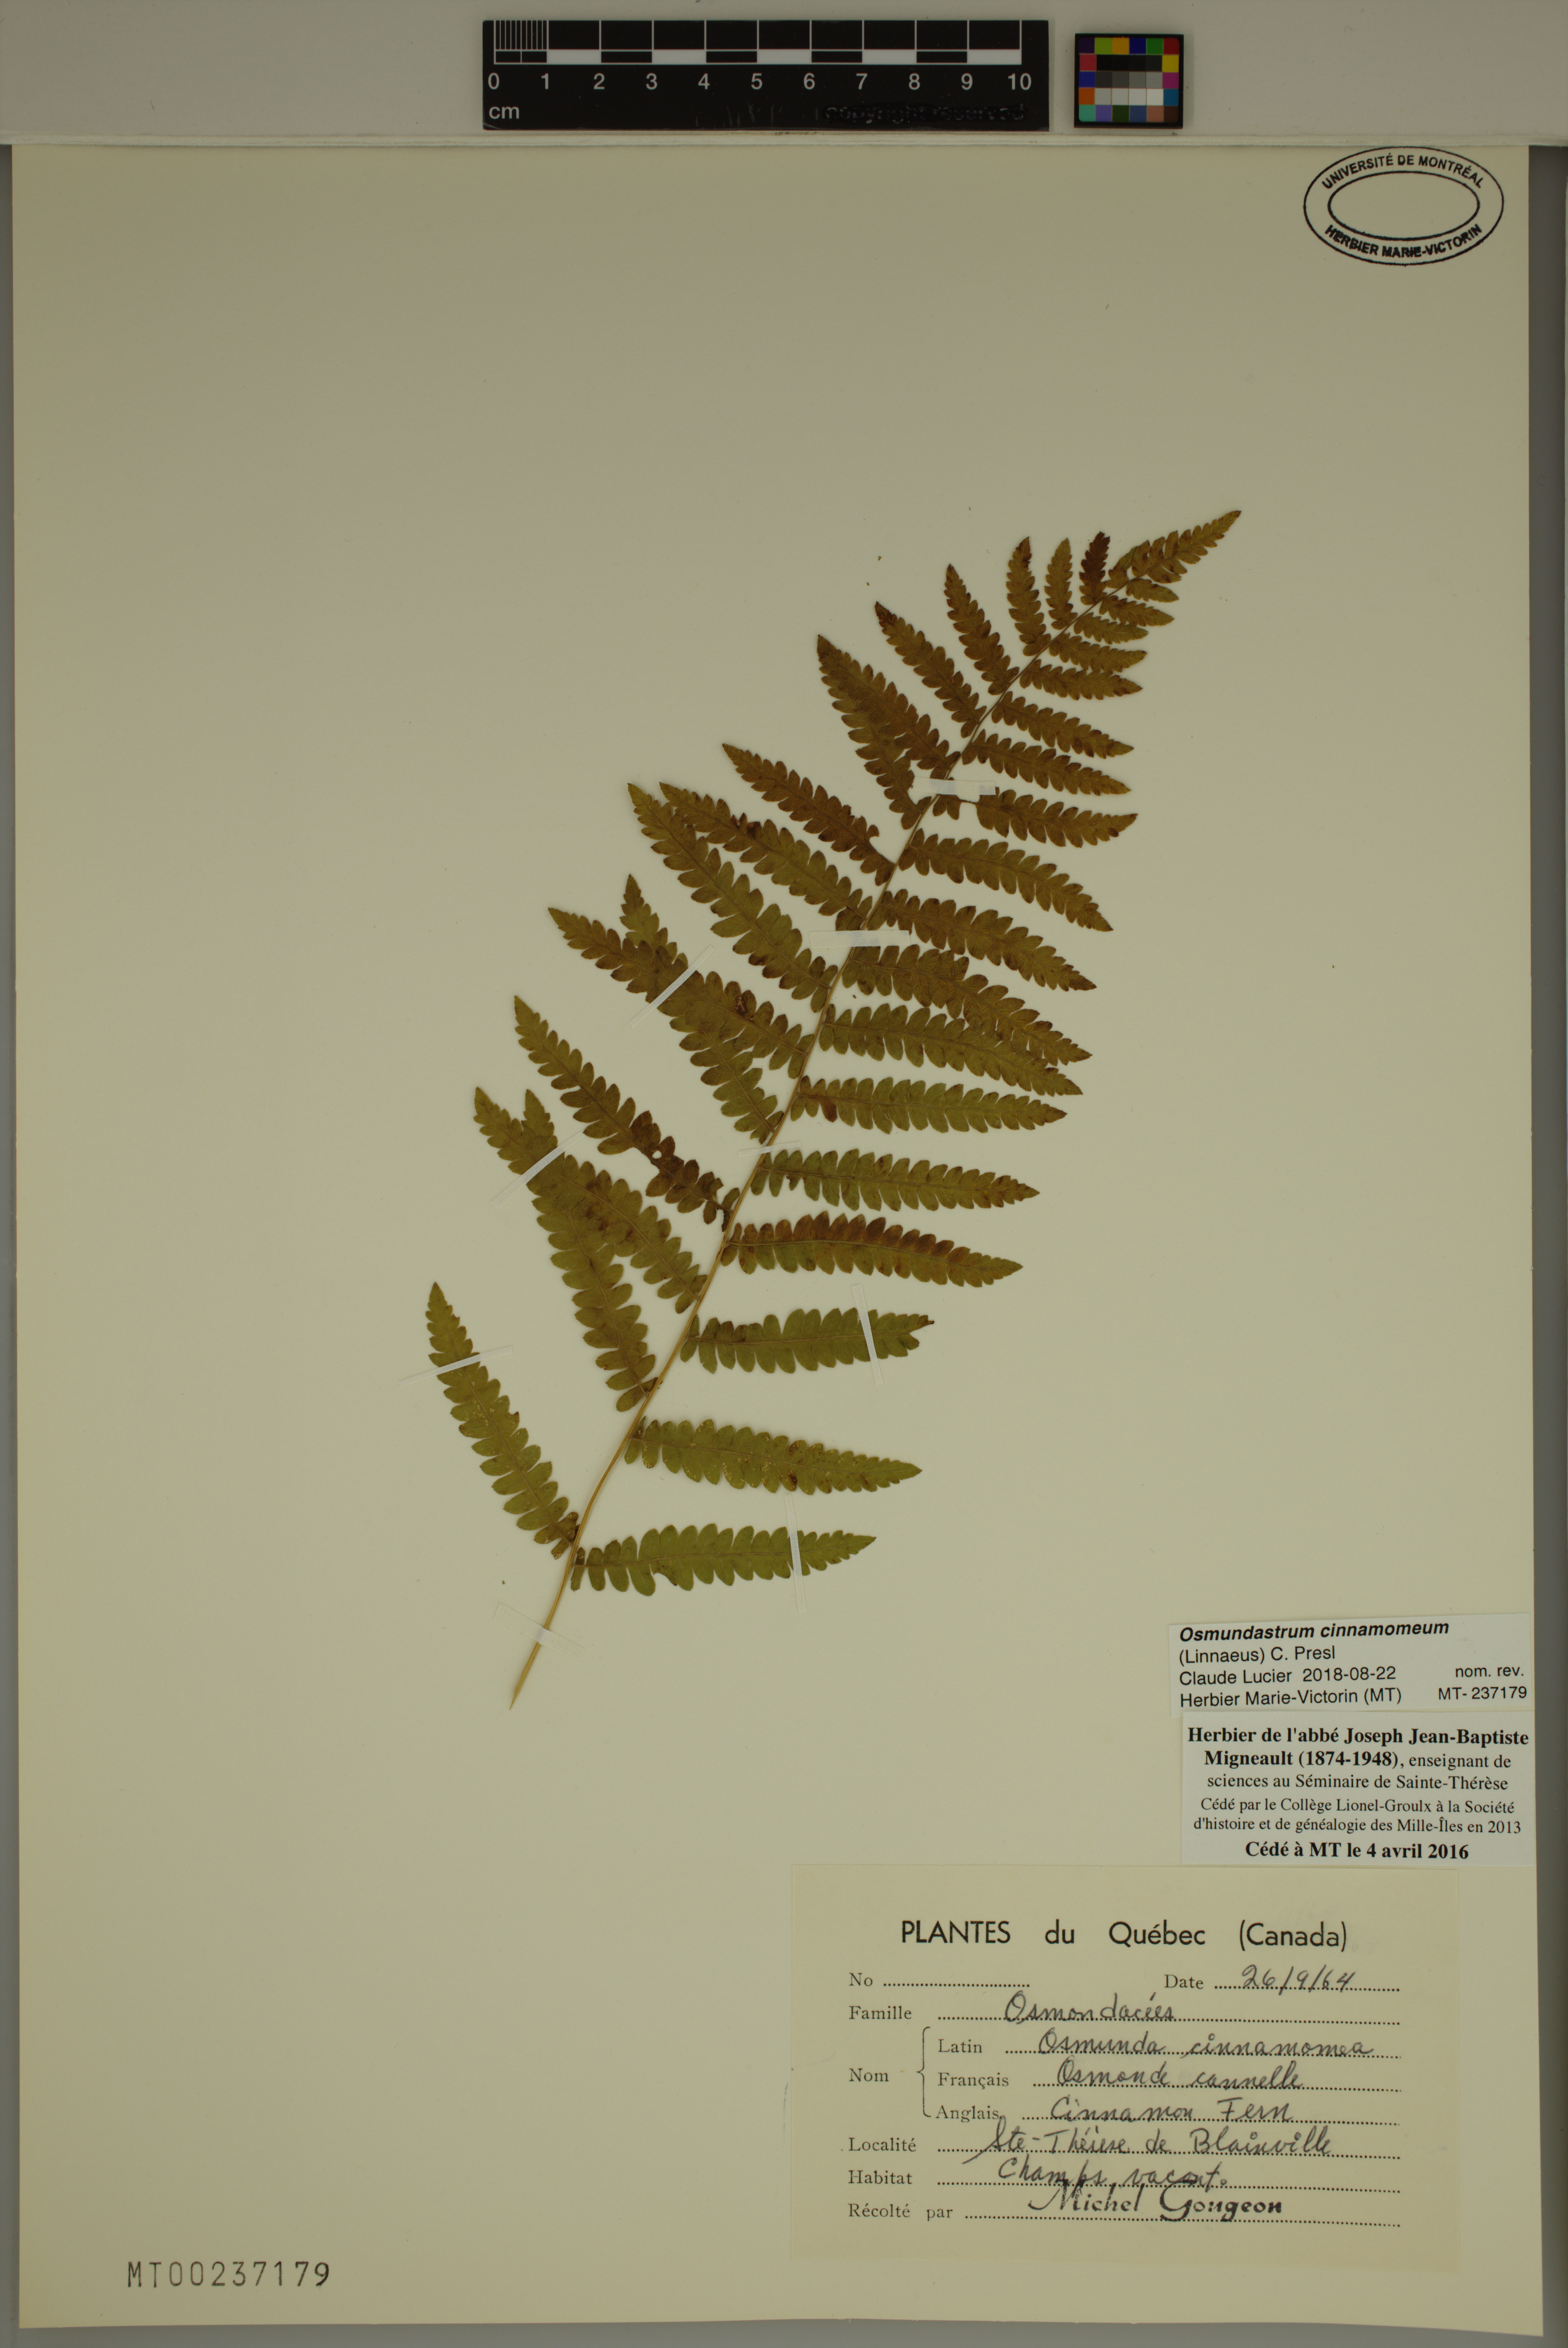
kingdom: Plantae
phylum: Tracheophyta
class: Polypodiopsida
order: Osmundales
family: Osmundaceae
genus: Osmundastrum
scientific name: Osmundastrum cinnamomeum
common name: Cinnamon fern
